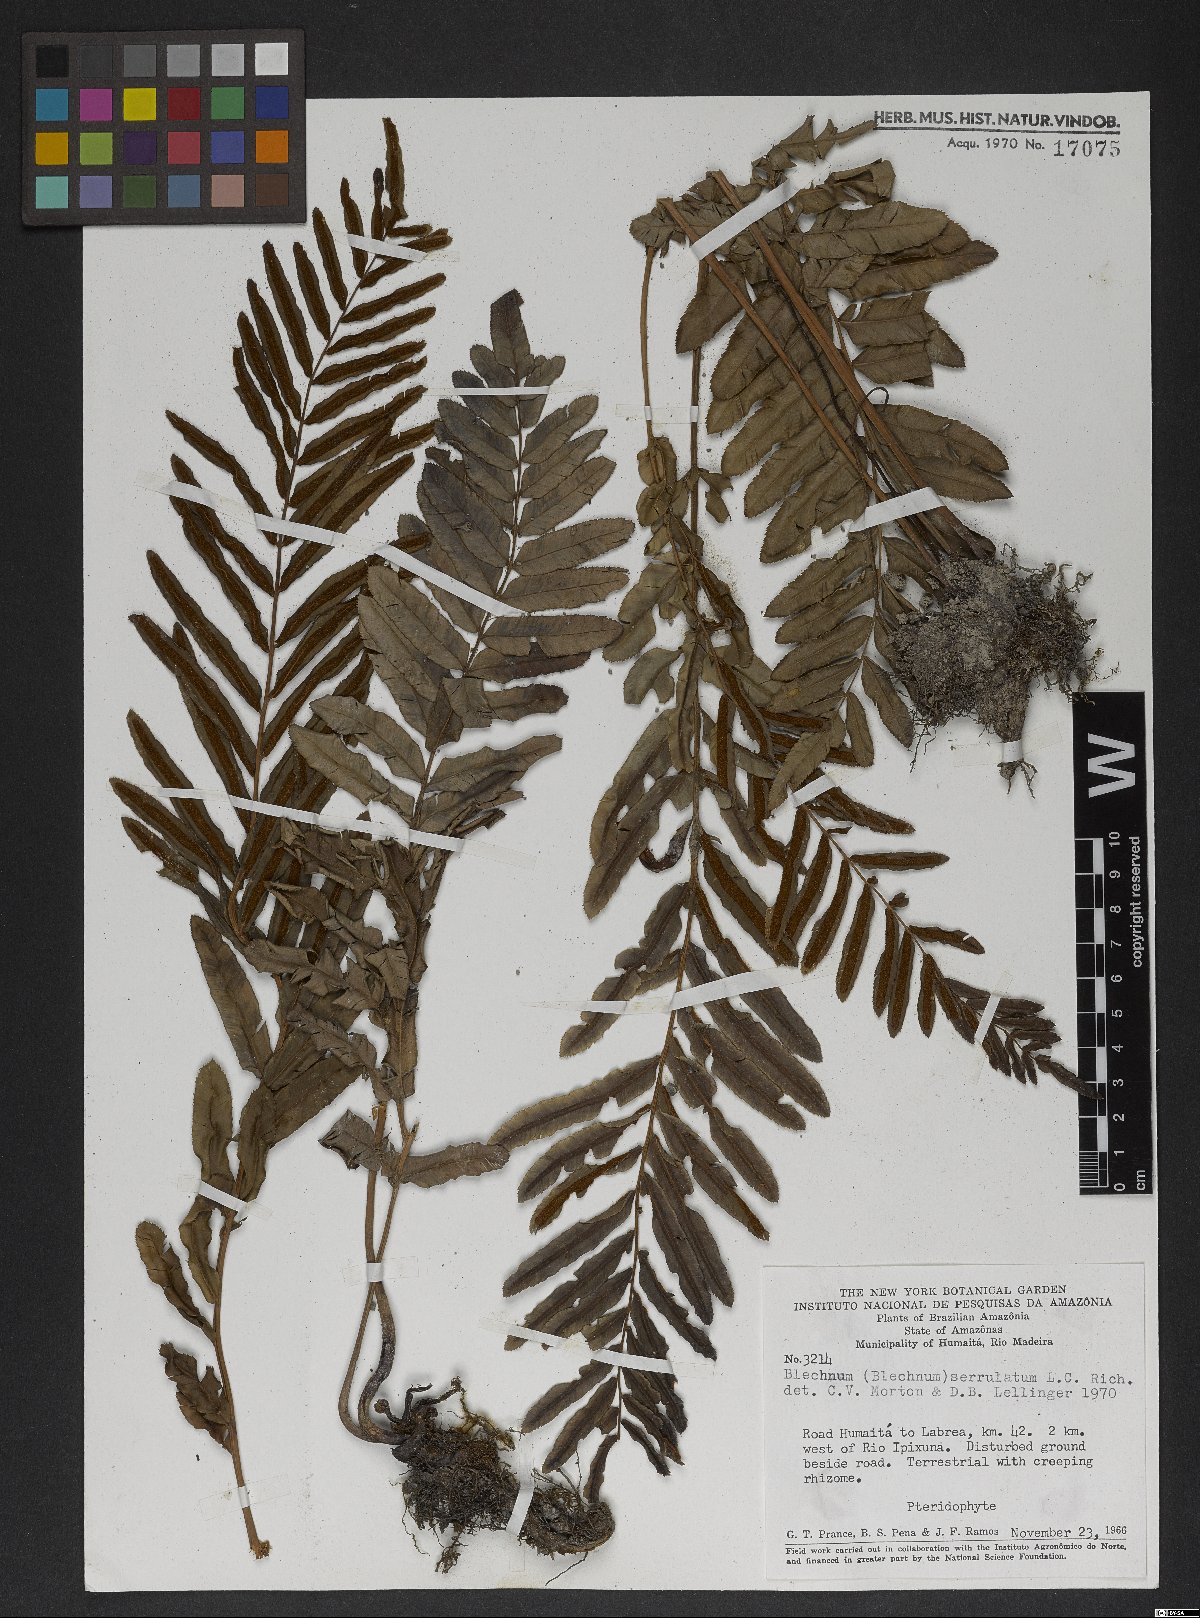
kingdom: Plantae
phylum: Tracheophyta
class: Polypodiopsida
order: Polypodiales
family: Blechnaceae
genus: Telmatoblechnum
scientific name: Telmatoblechnum serrulatum
